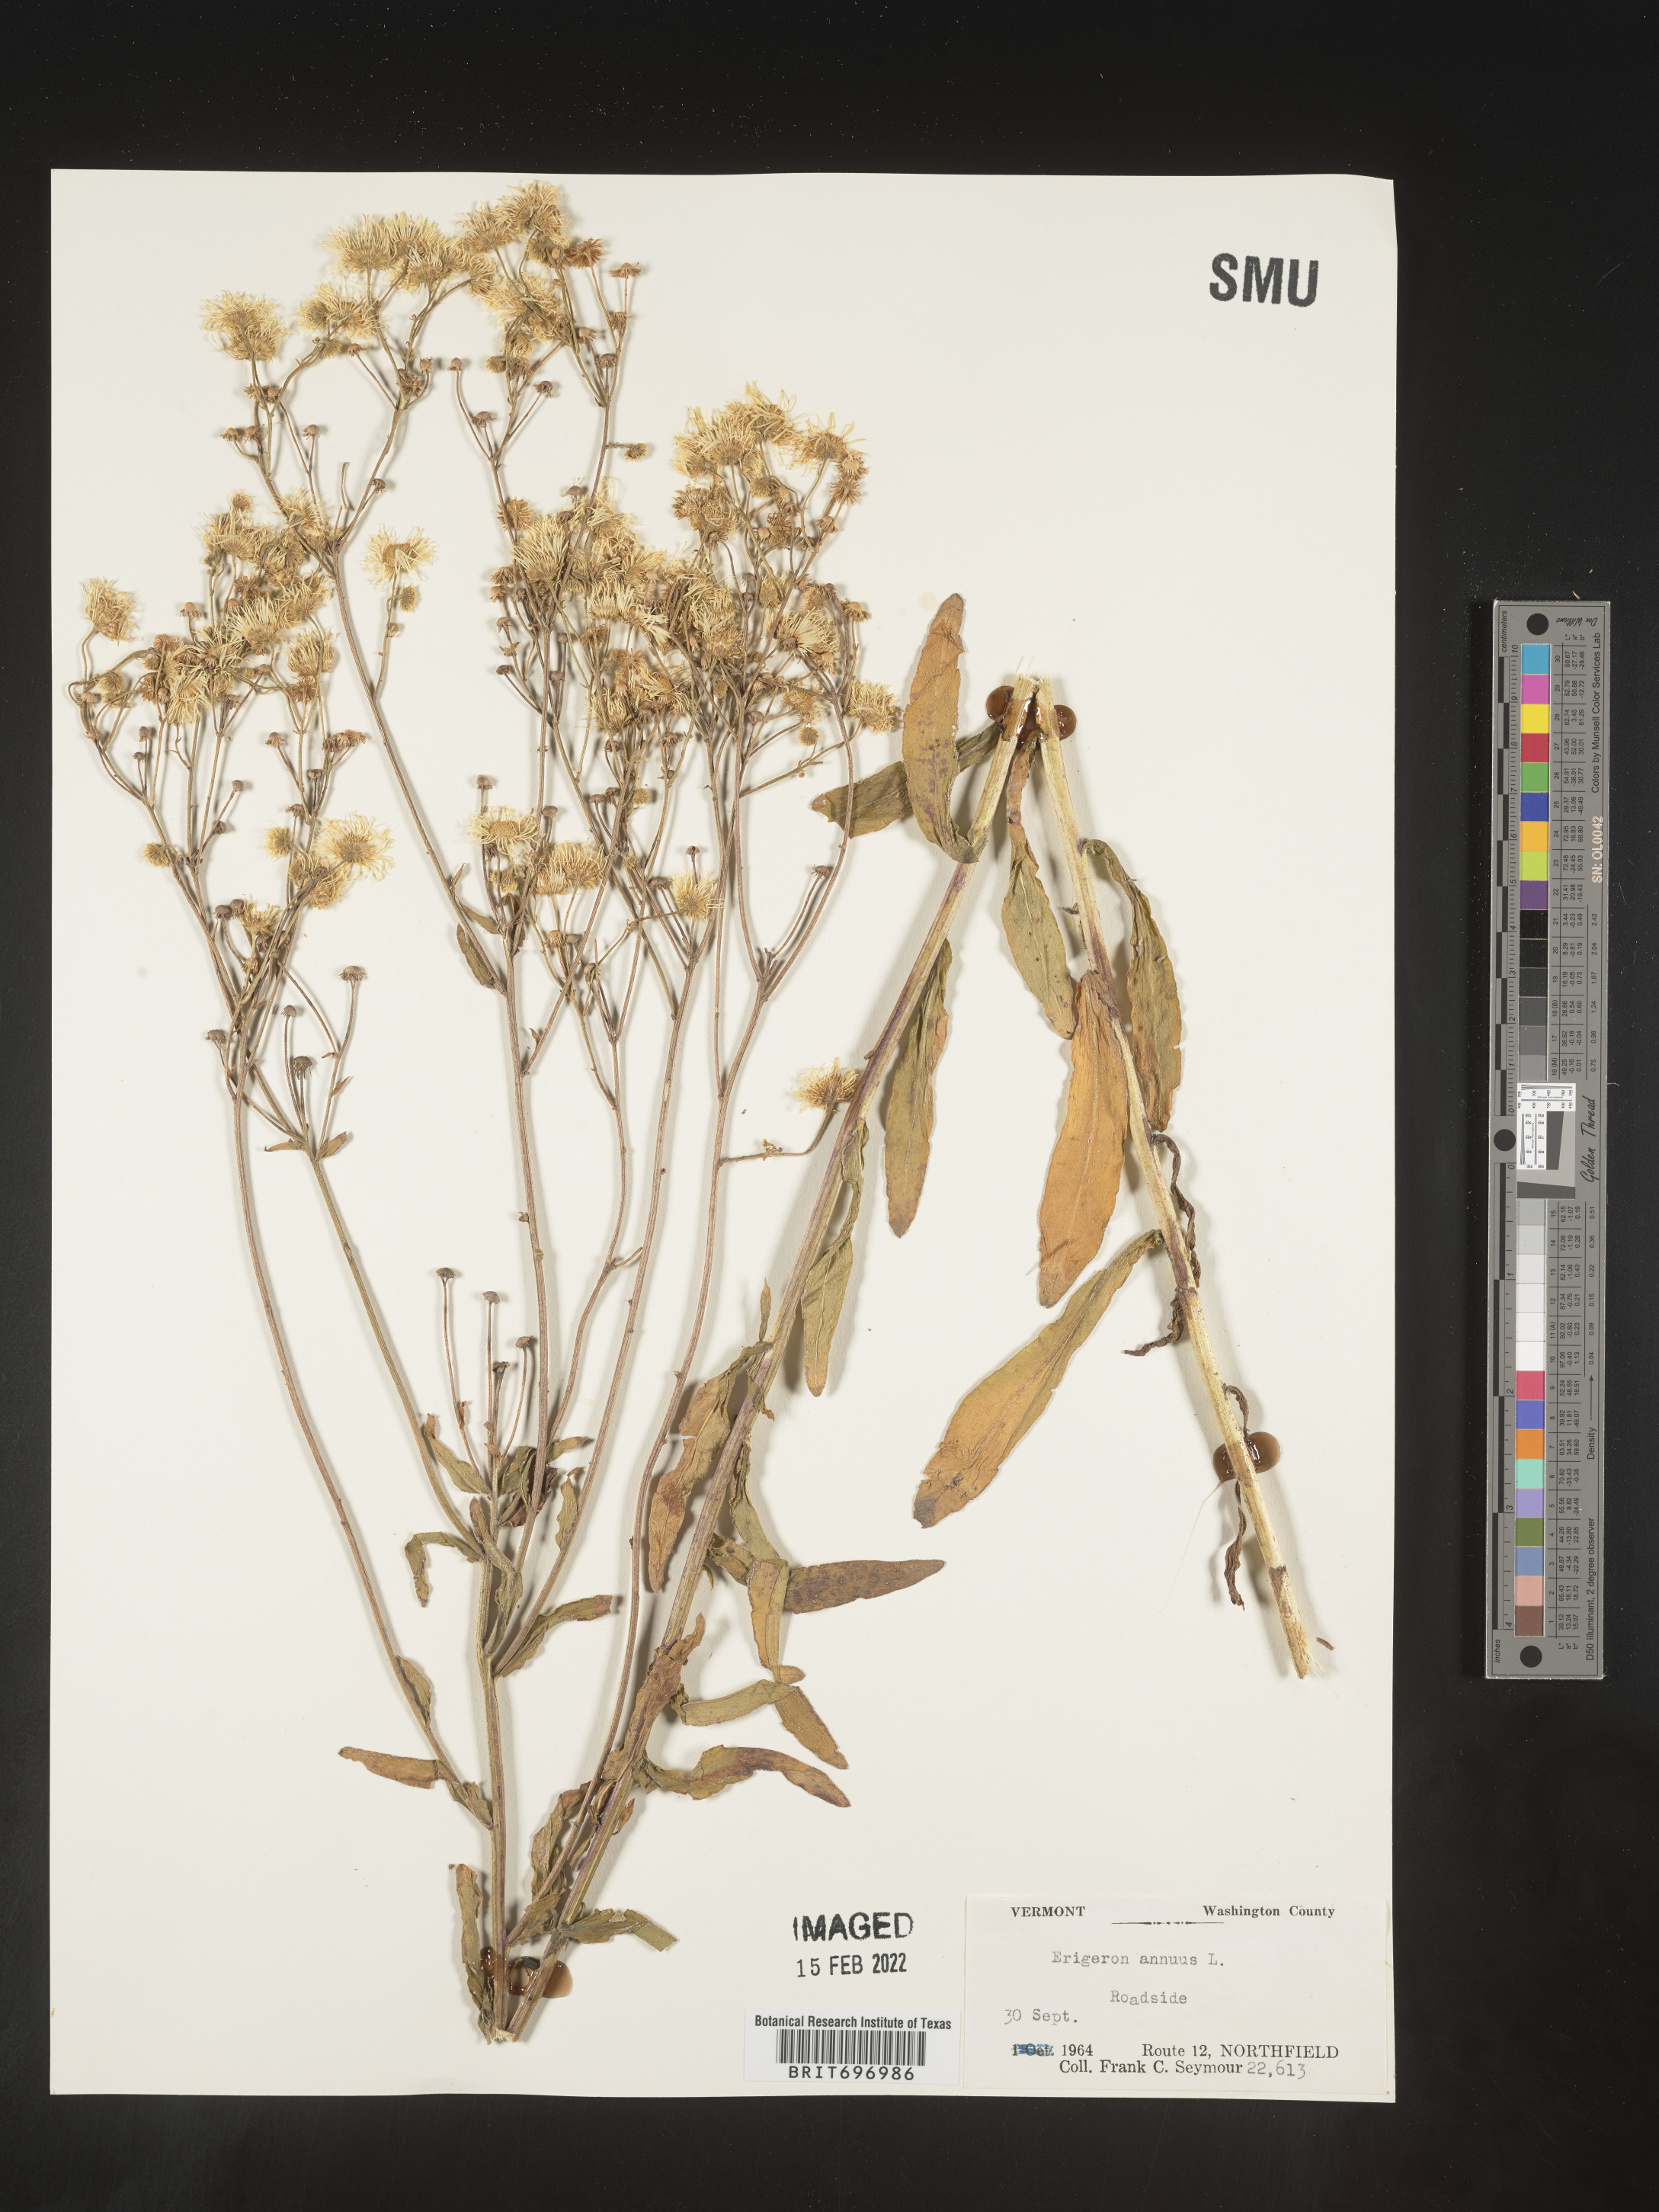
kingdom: Plantae
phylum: Tracheophyta
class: Magnoliopsida
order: Asterales
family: Asteraceae
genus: Erigeron
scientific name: Erigeron annuus
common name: Tall fleabane
